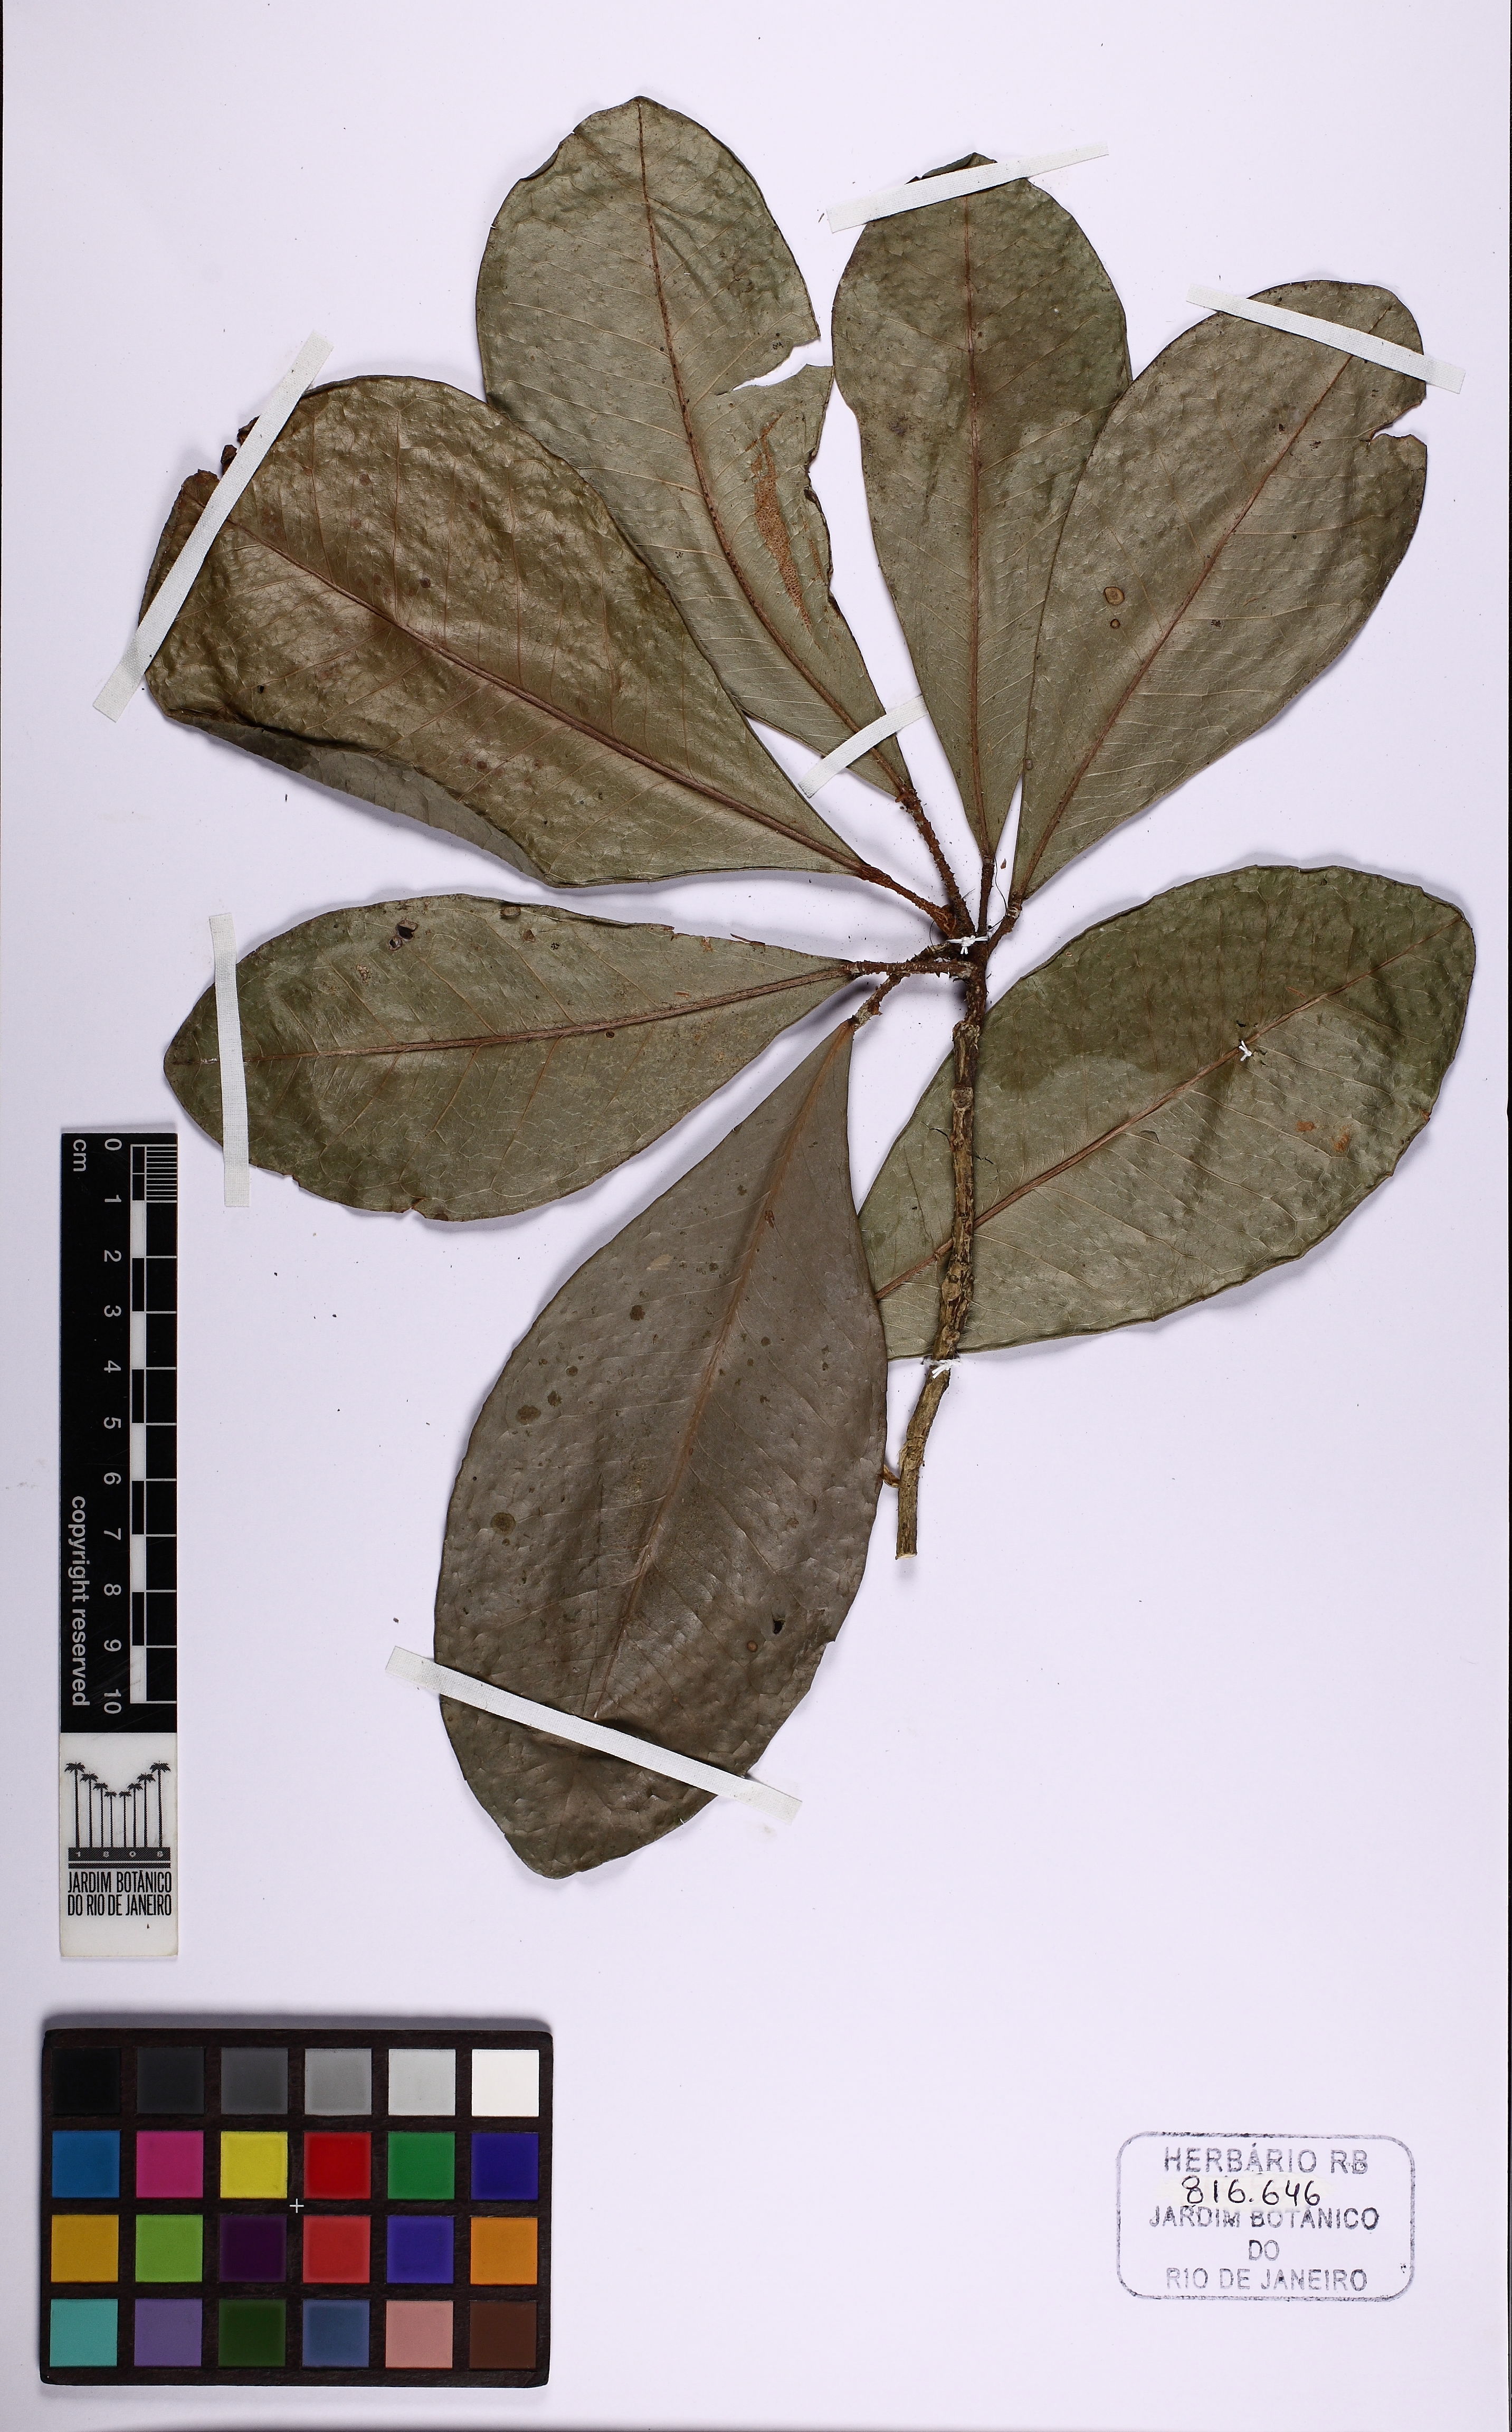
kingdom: Plantae
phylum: Tracheophyta
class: Magnoliopsida
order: Sapindales
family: Rutaceae
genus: Esenbeckia
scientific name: Esenbeckia grandiflora
